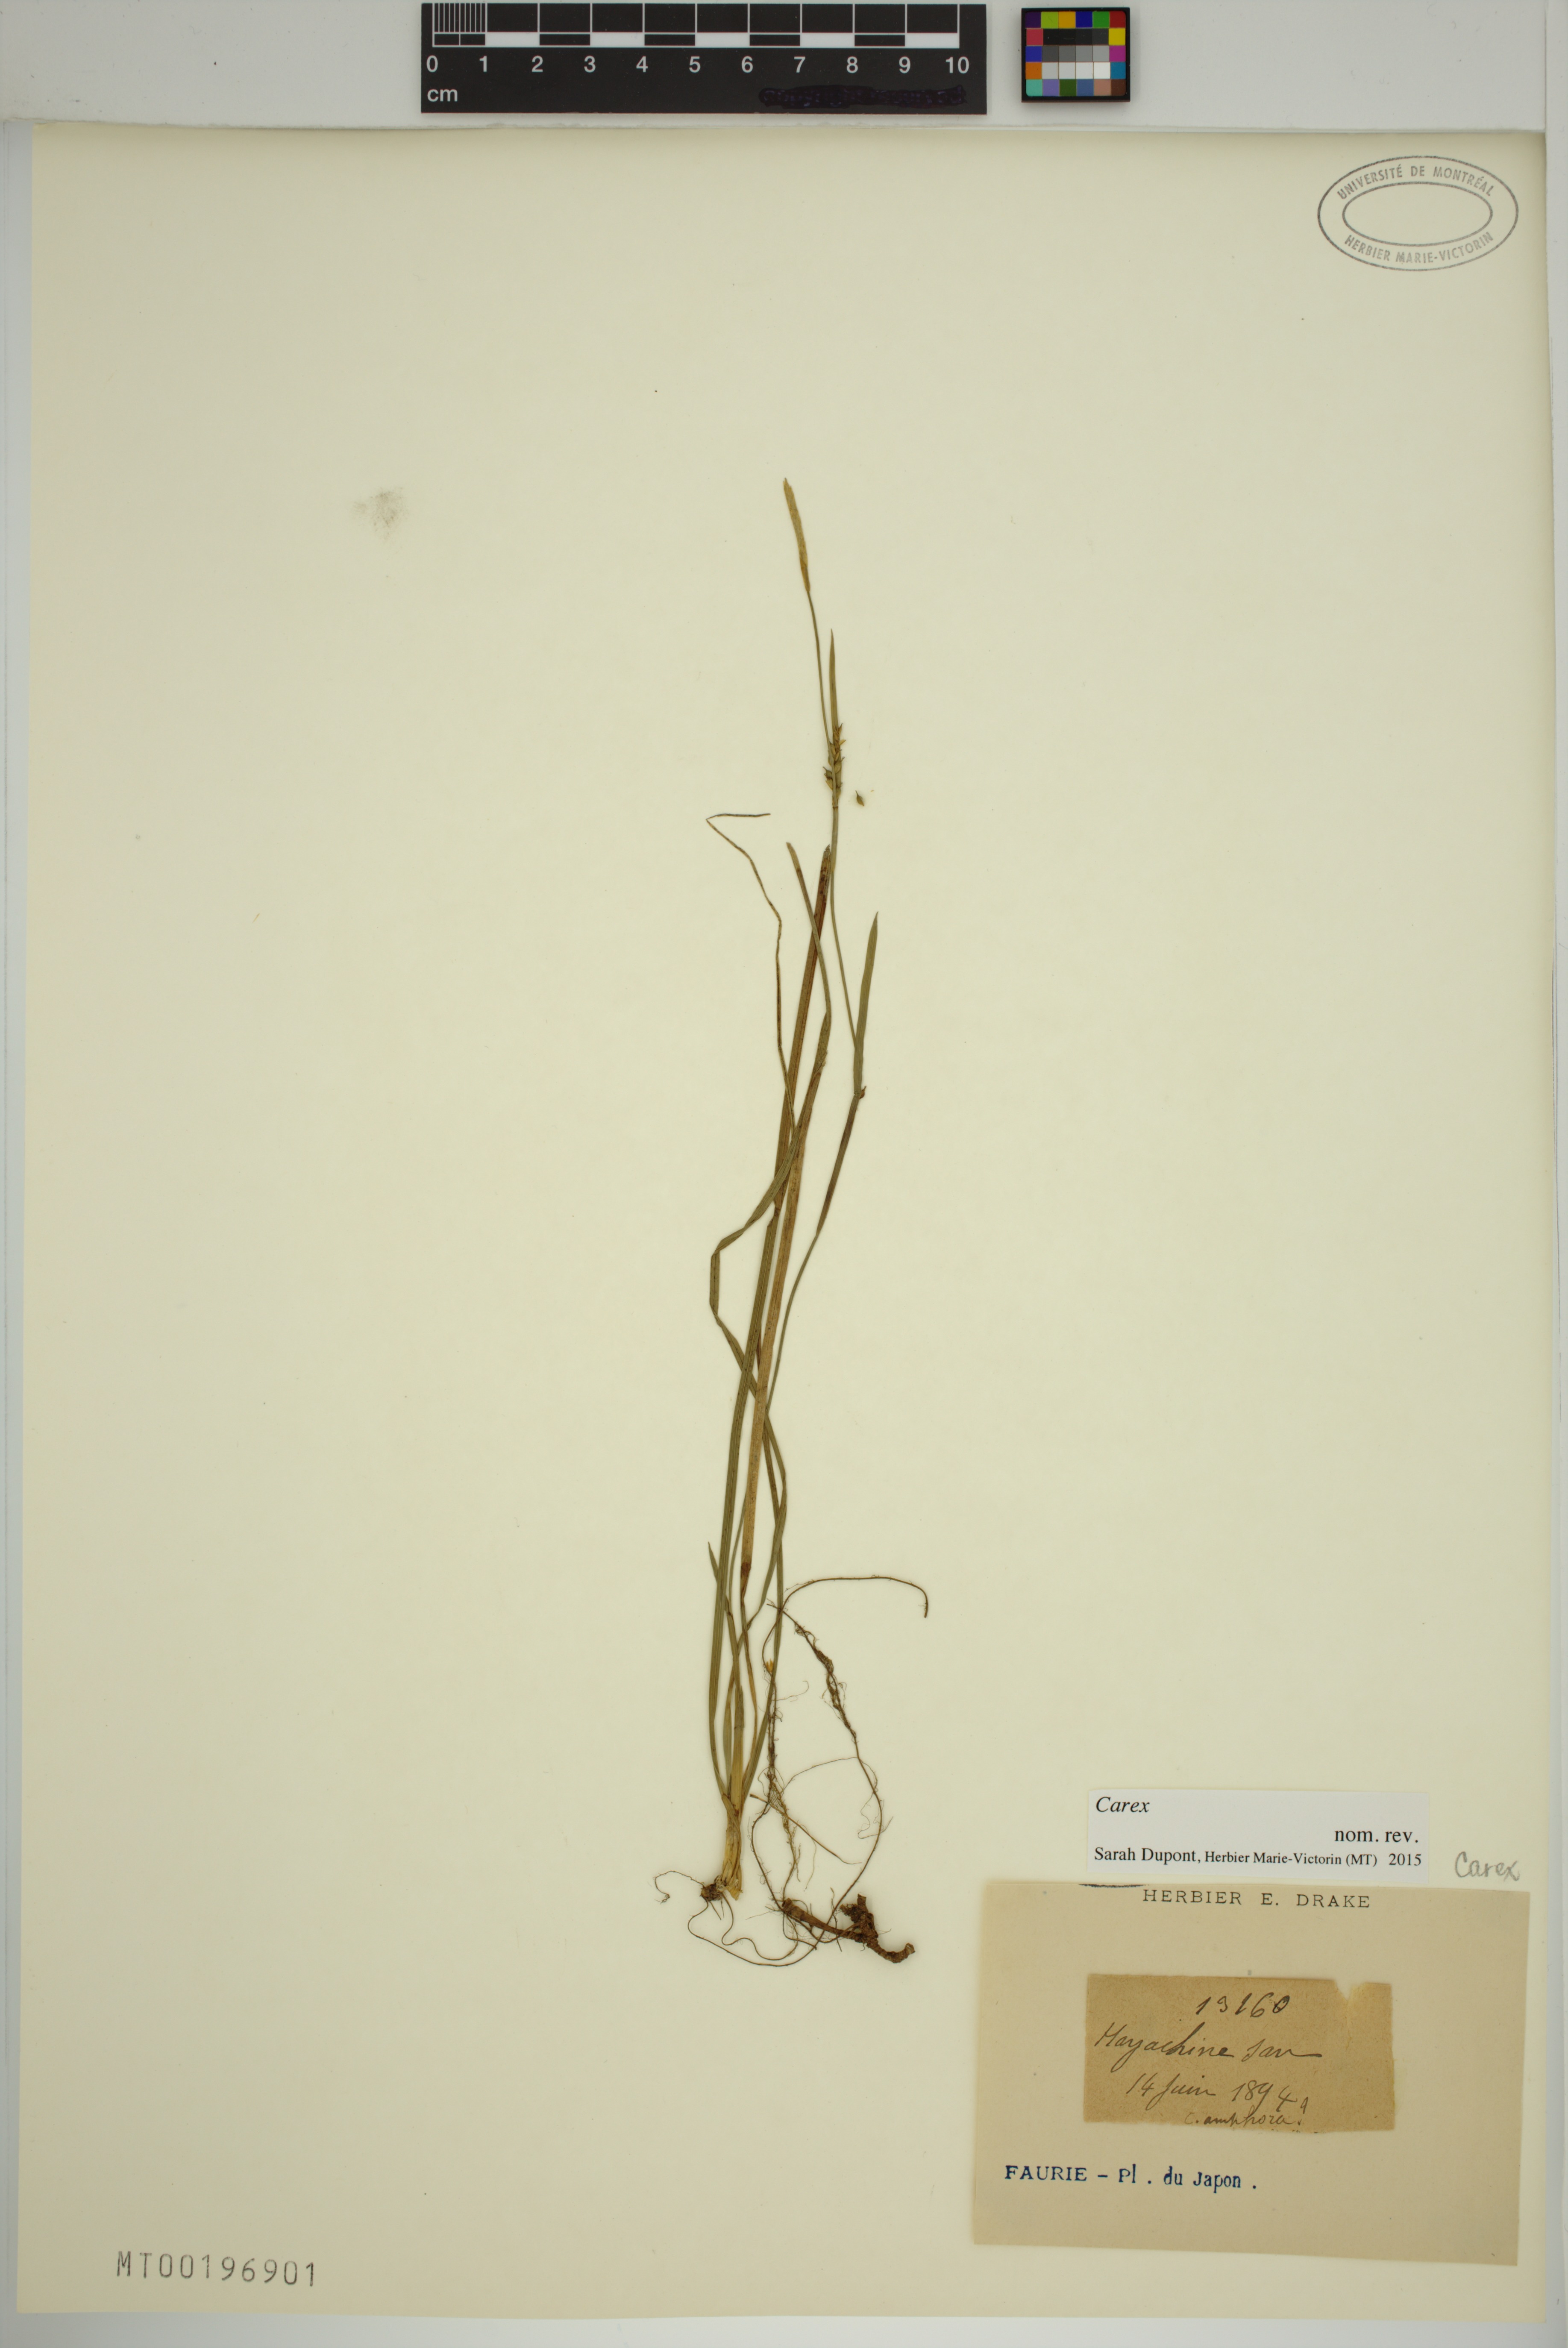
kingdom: Plantae
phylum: Tracheophyta
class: Liliopsida
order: Poales
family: Cyperaceae
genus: Carex
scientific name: Carex
